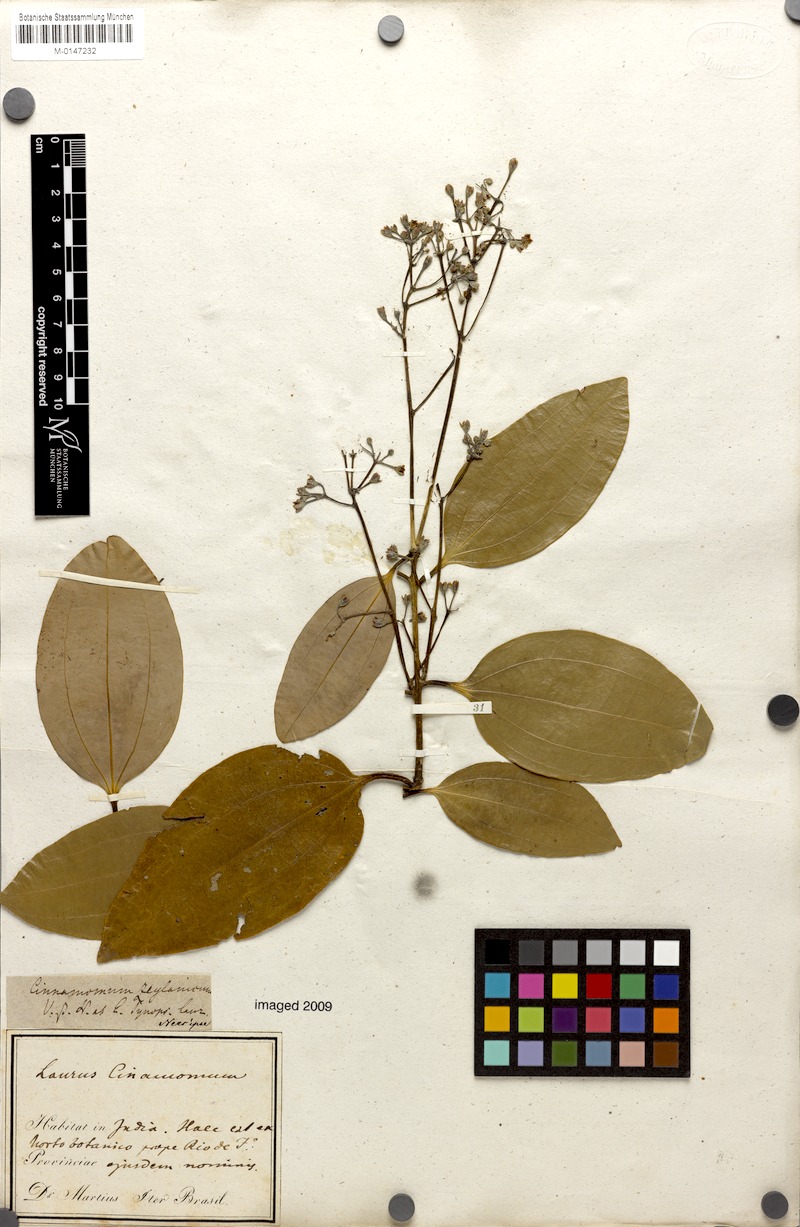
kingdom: Plantae
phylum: Tracheophyta
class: Magnoliopsida
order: Laurales
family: Lauraceae
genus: Cinnamomum
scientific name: Cinnamomum verum
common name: Cinnamon
